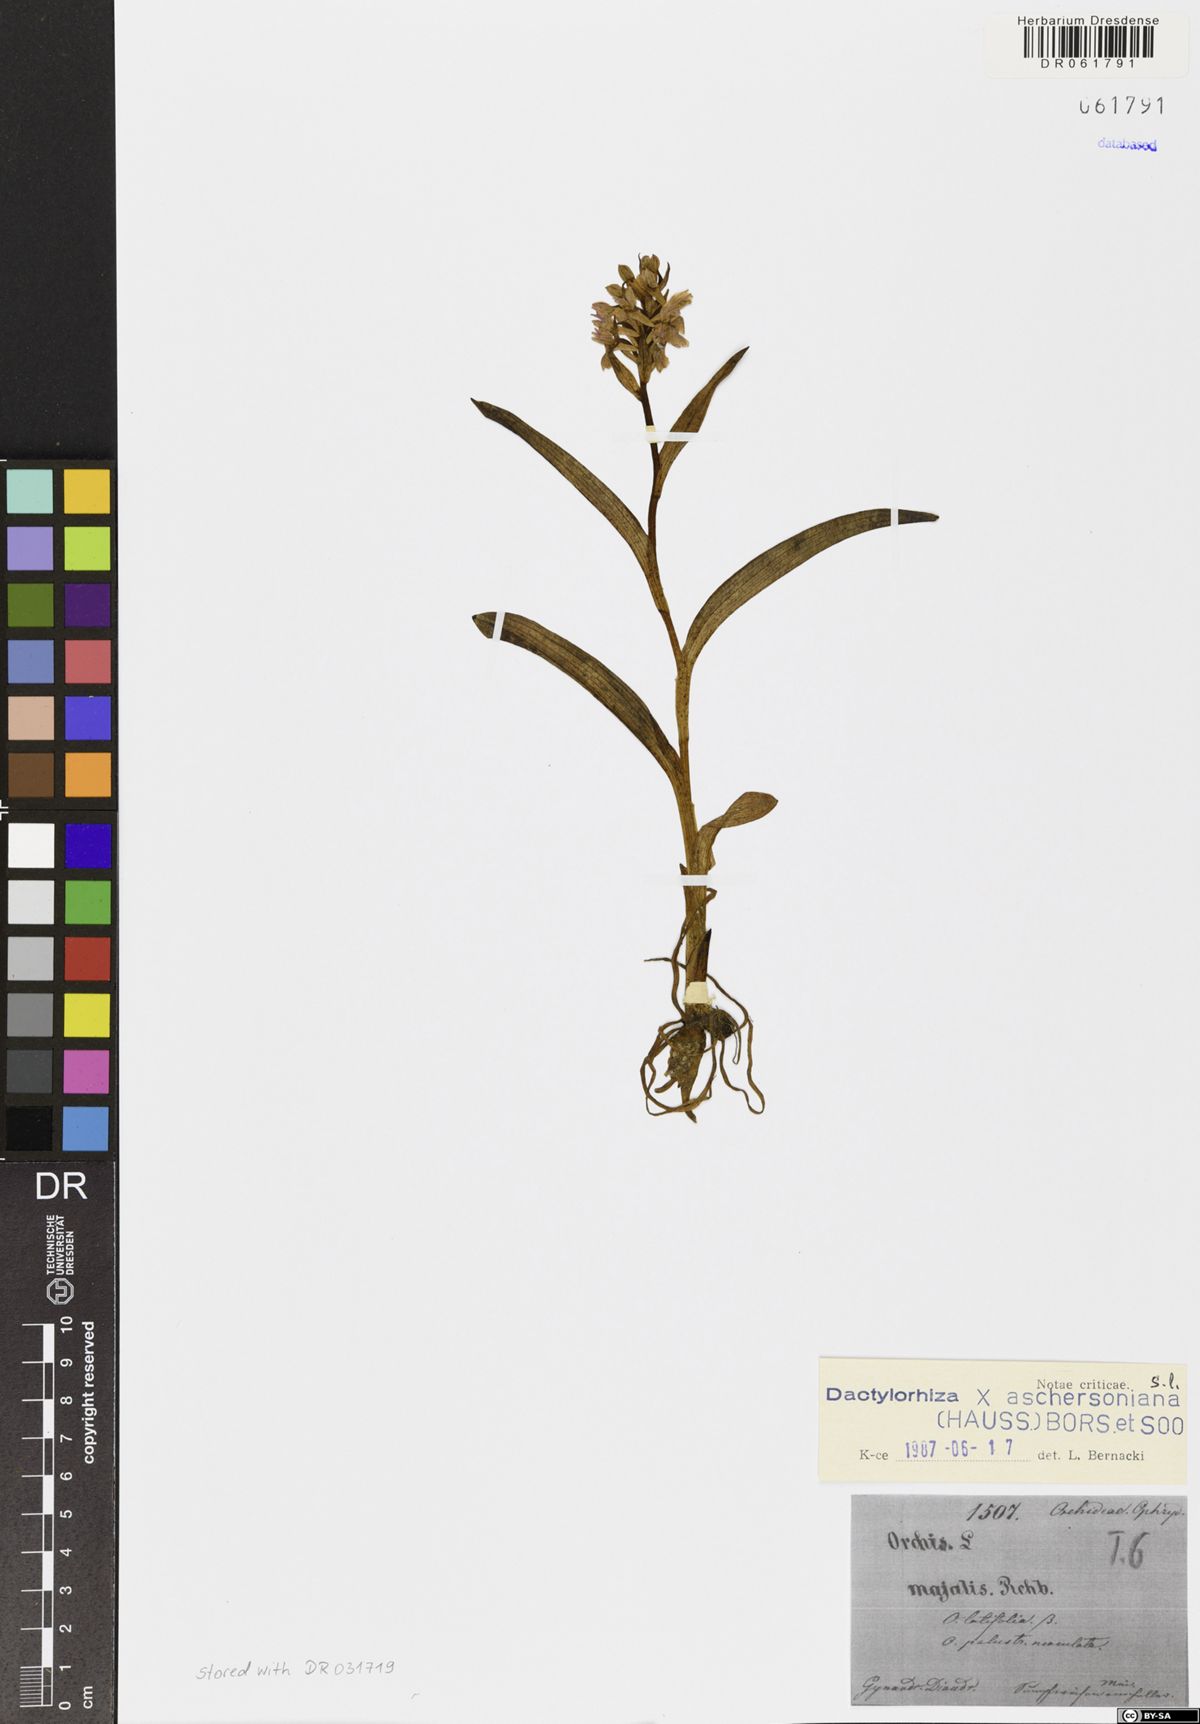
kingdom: Plantae
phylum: Tracheophyta
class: Liliopsida
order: Asparagales
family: Orchidaceae
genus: Dactylorhiza
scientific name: Dactylorhiza aschersoniana
